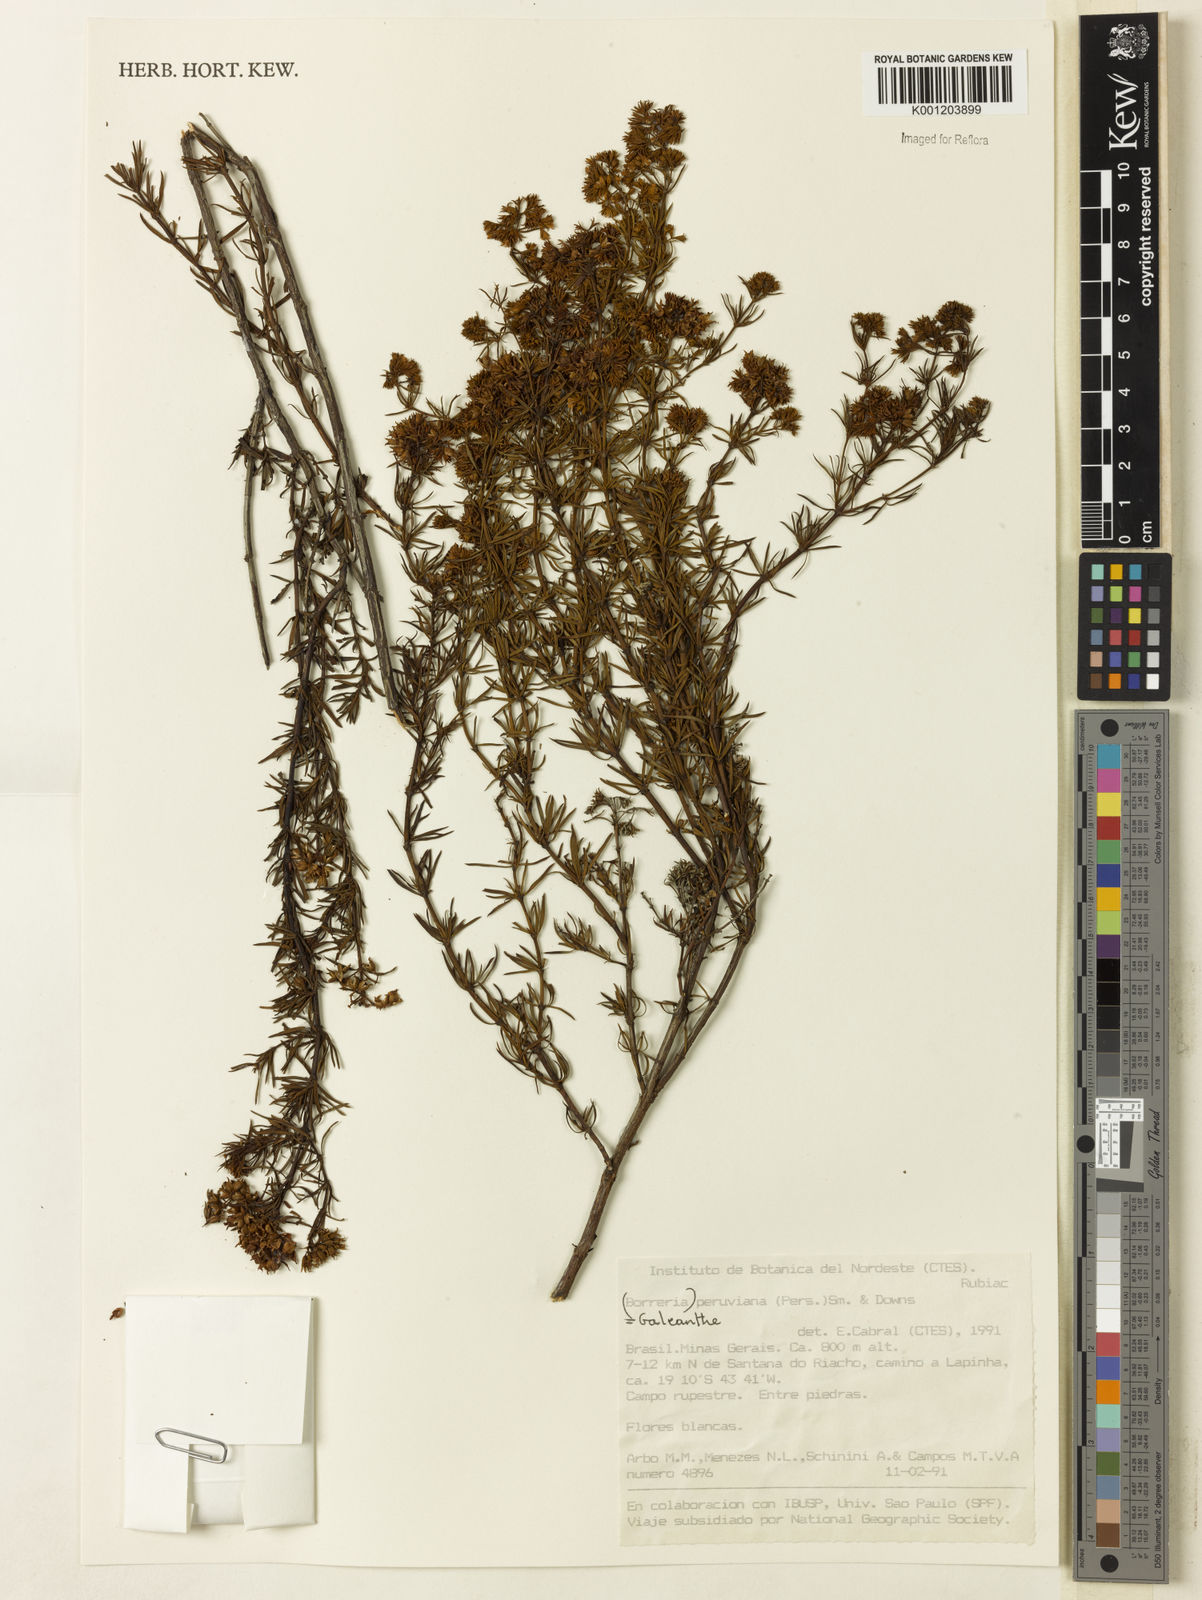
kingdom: Plantae
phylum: Tracheophyta
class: Magnoliopsida
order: Gentianales
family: Rubiaceae
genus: Galianthe
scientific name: Galianthe peruviana
